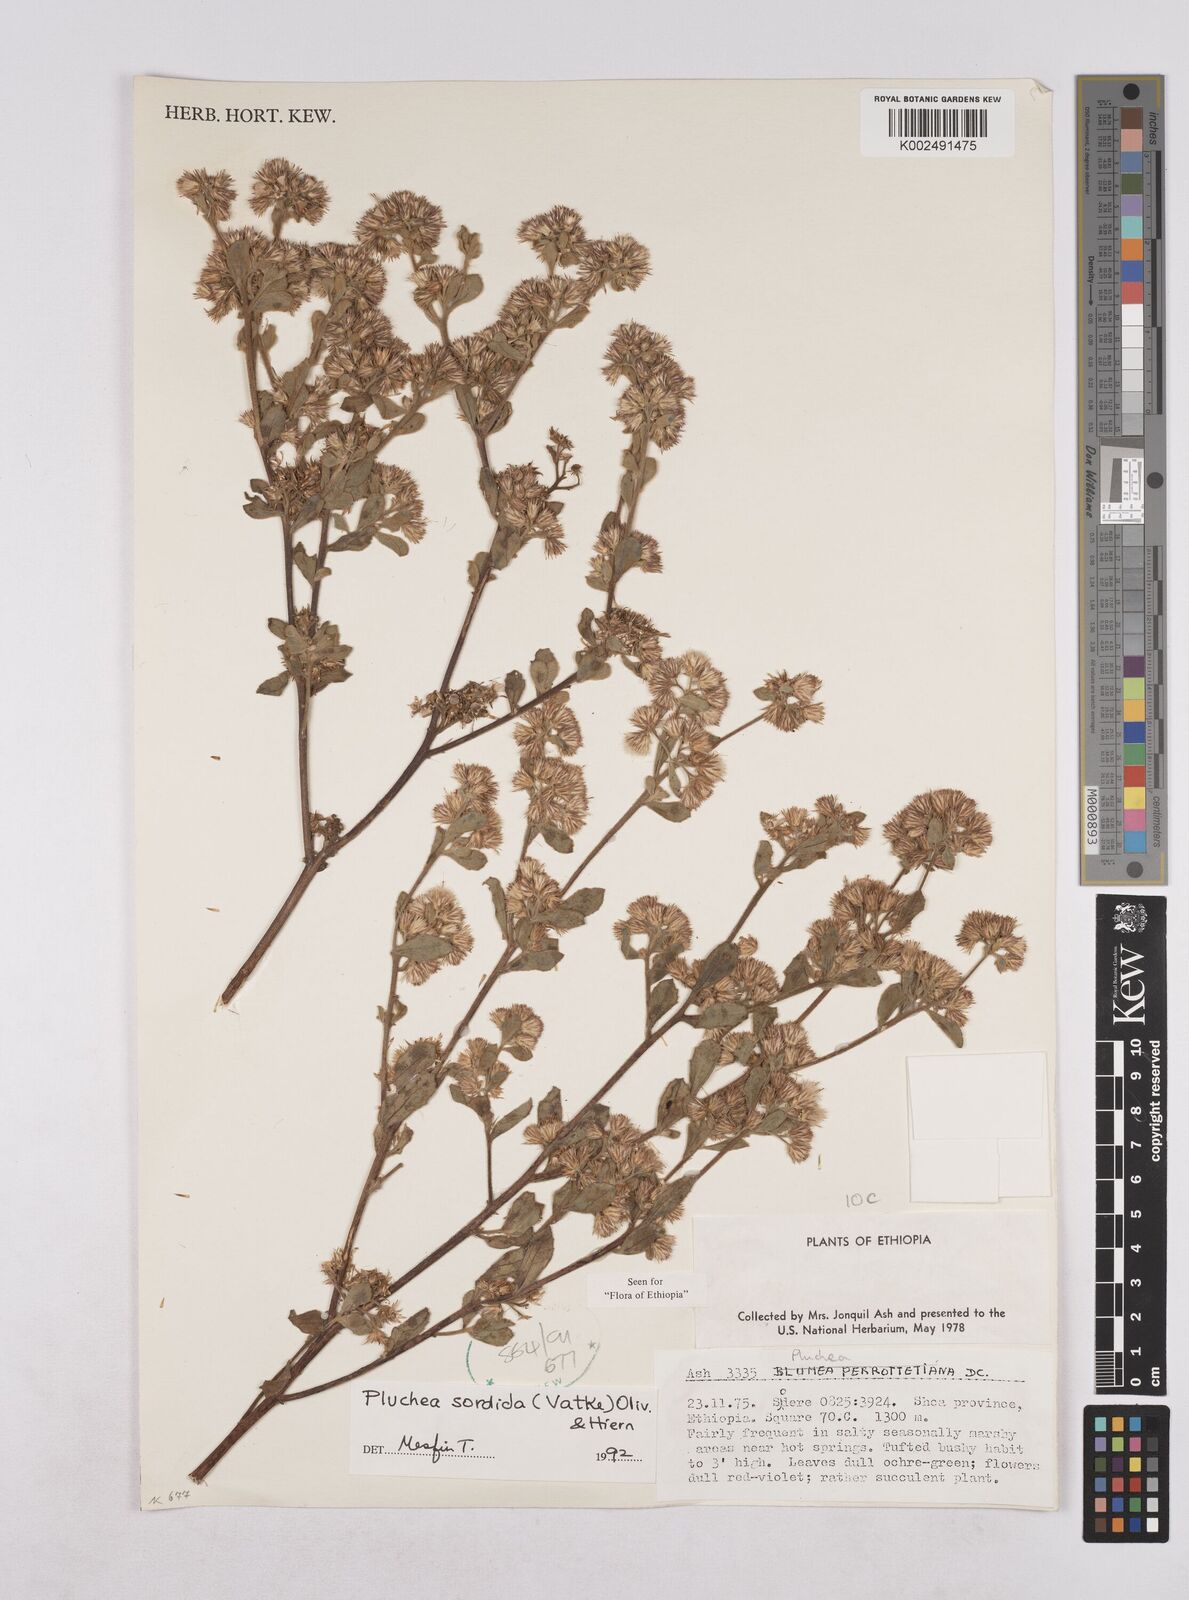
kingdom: Plantae
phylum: Tracheophyta
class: Magnoliopsida
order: Asterales
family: Asteraceae
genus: Pluchea
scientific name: Pluchea sordida
